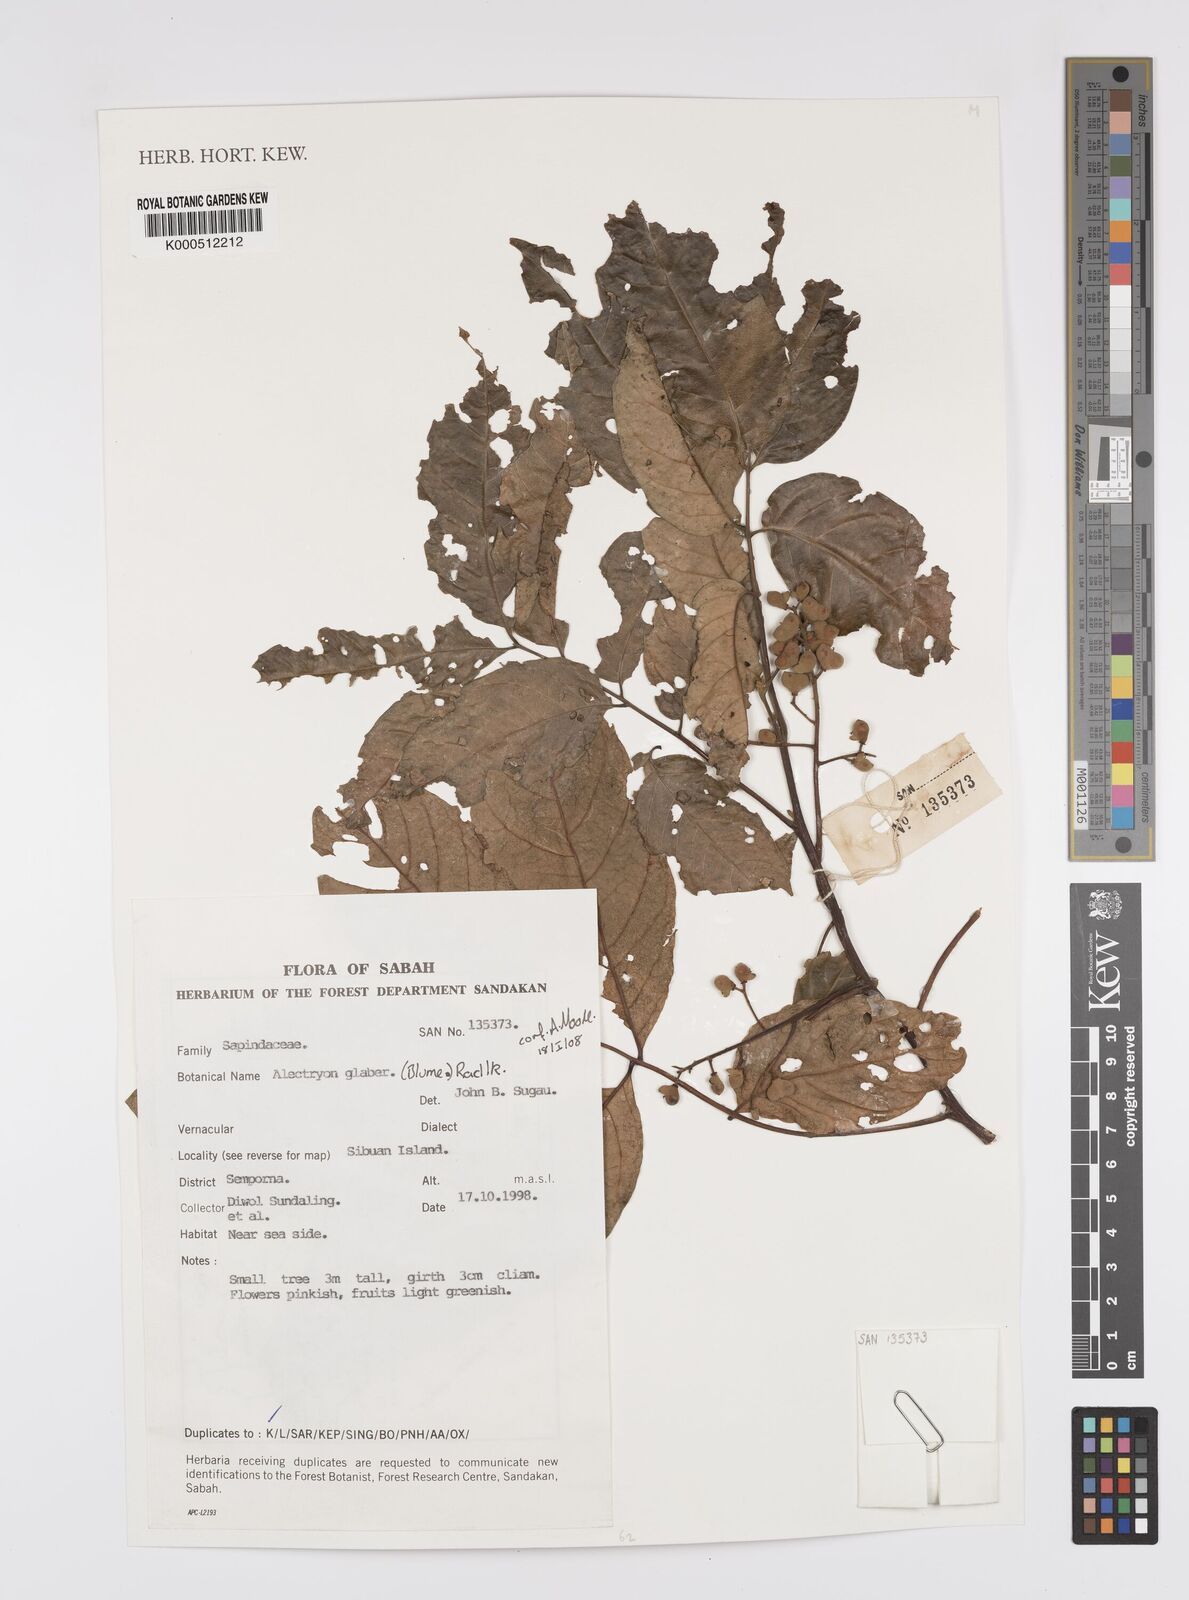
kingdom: Plantae
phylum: Tracheophyta
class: Magnoliopsida
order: Sapindales
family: Sapindaceae
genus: Alectryon
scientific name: Alectryon glaber
